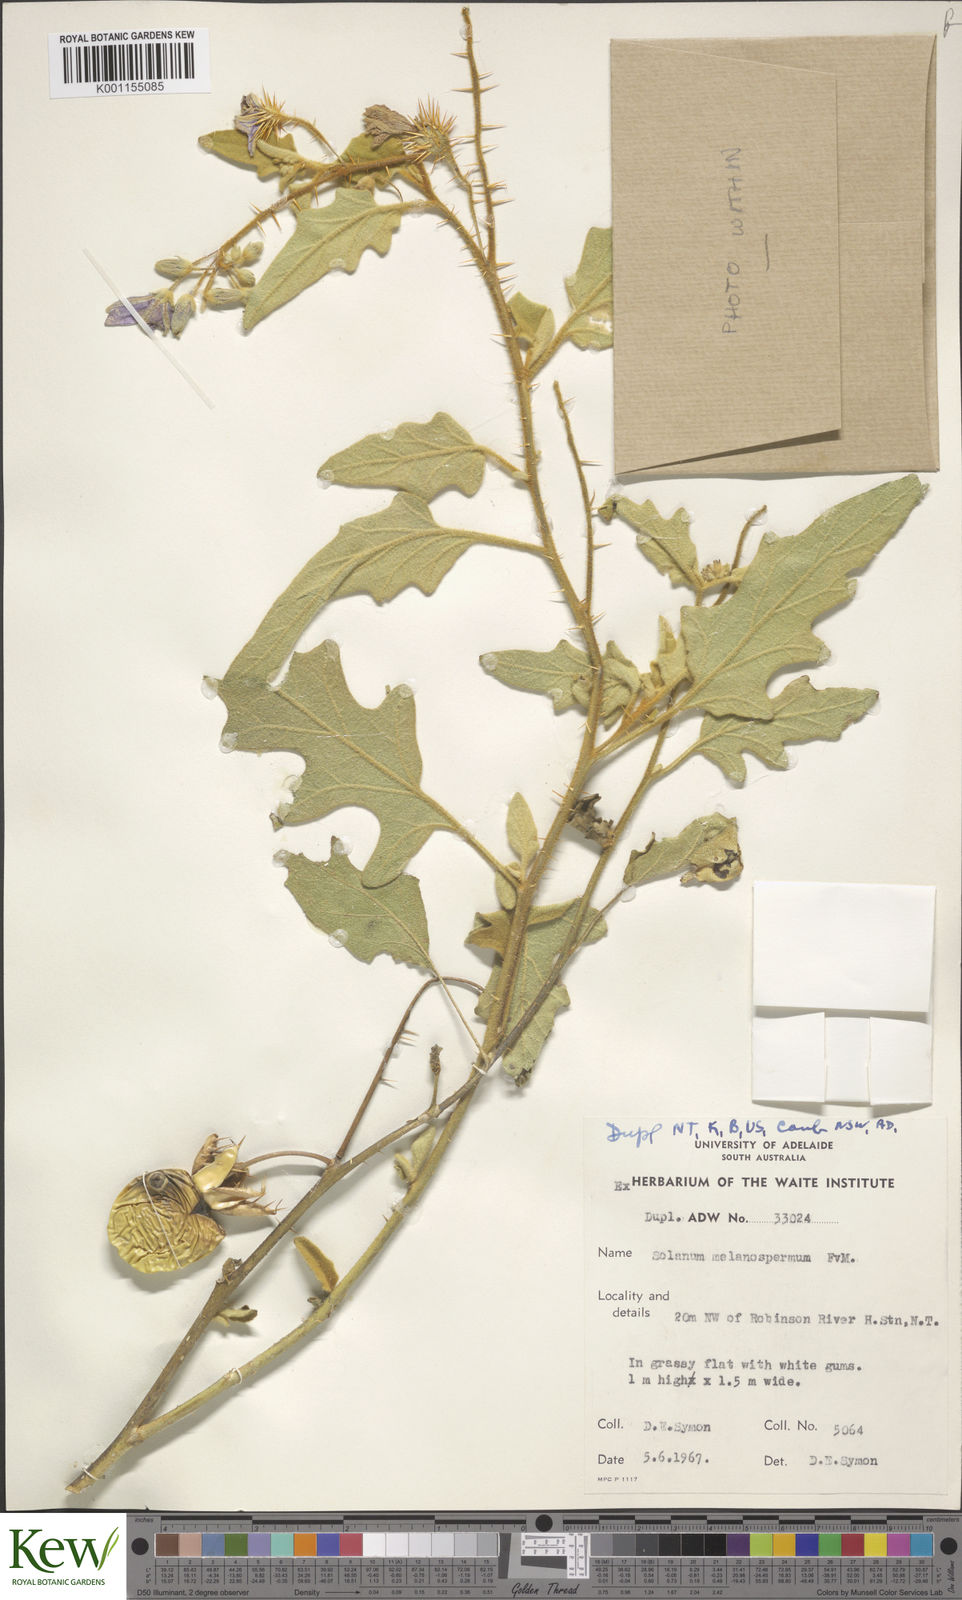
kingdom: Plantae
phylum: Tracheophyta
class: Magnoliopsida
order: Solanales
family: Solanaceae
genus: Solanum
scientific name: Solanum melanospermum
